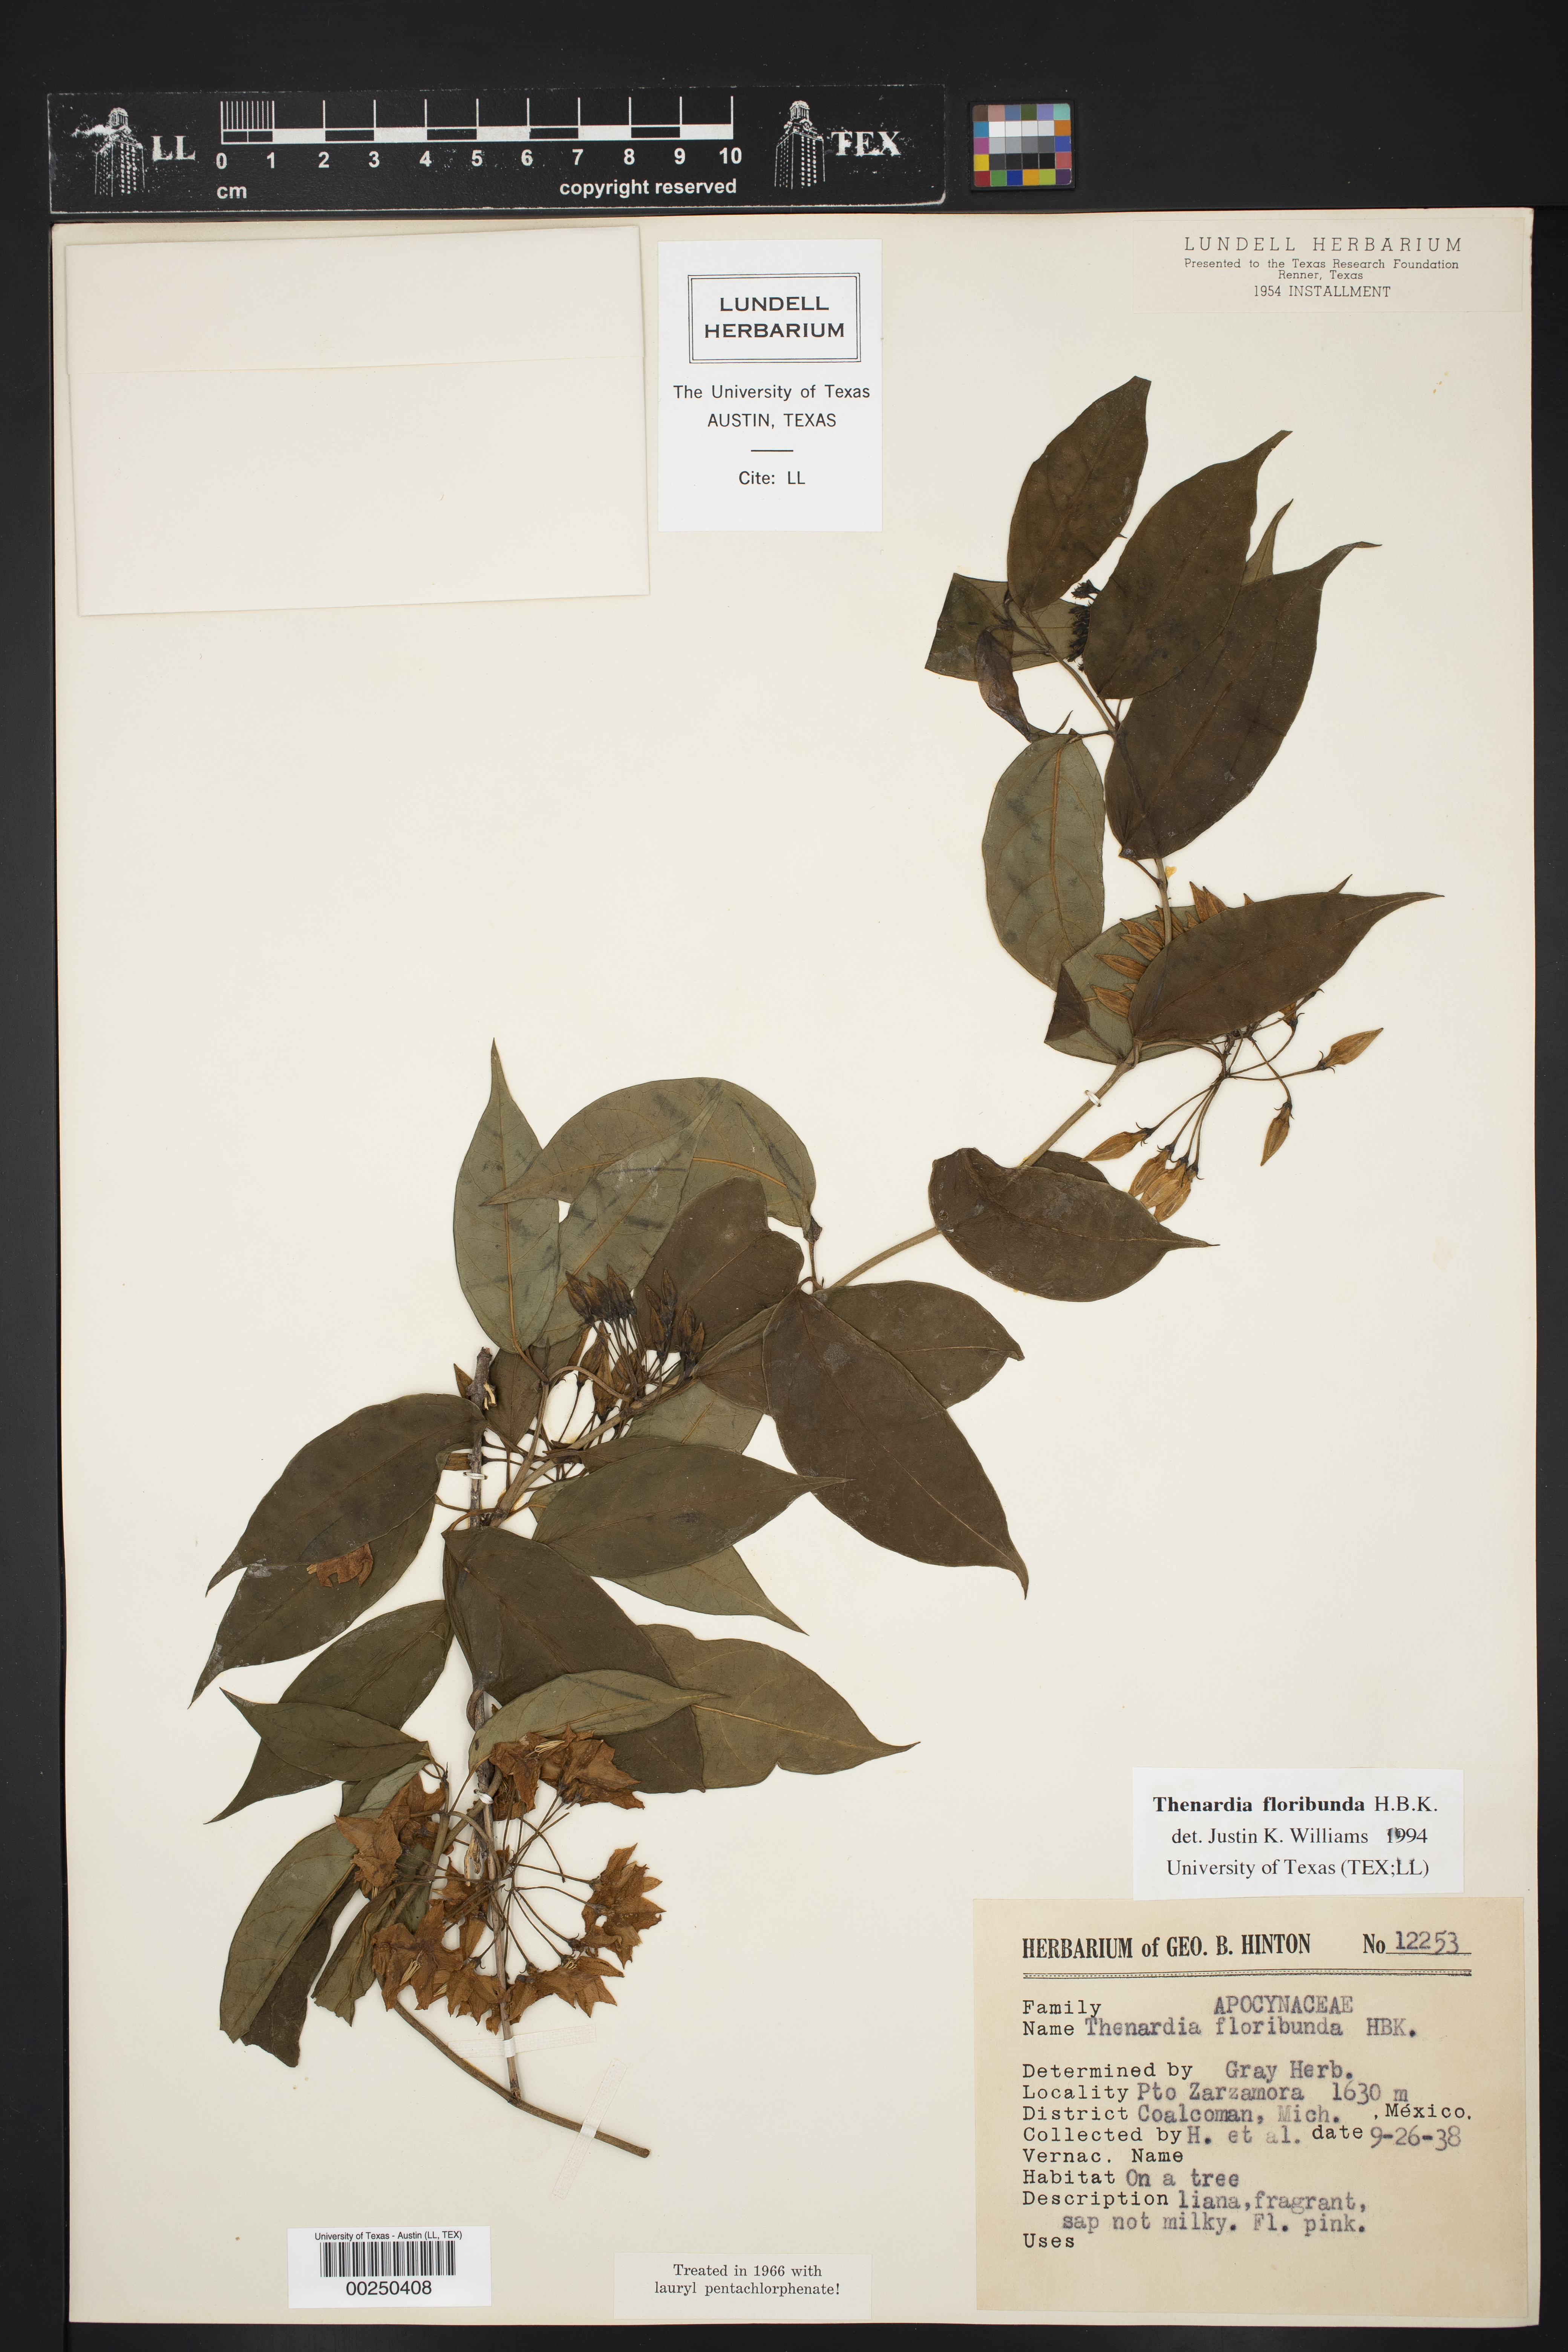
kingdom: Plantae
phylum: Tracheophyta
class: Magnoliopsida
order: Gentianales
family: Apocynaceae
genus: Thenardia
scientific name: Thenardia floribunda
